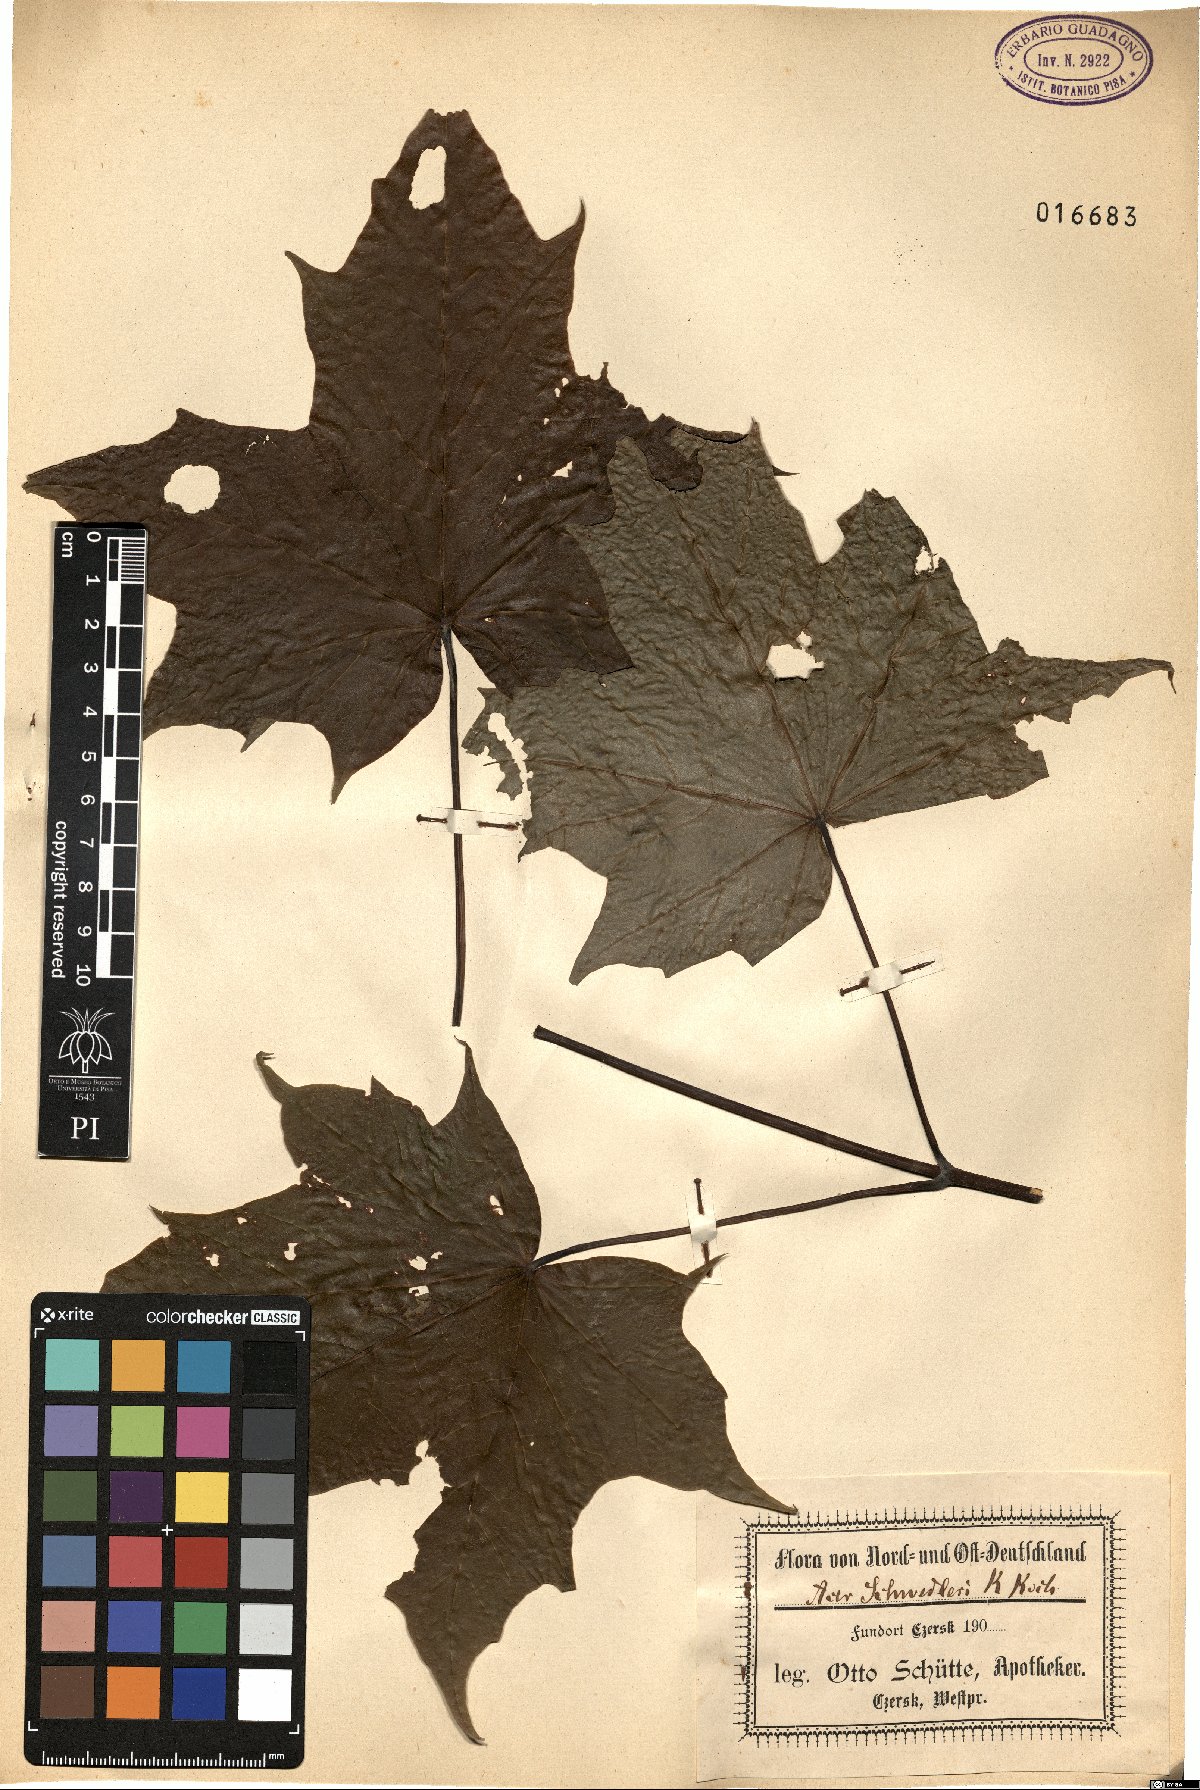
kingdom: Plantae
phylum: Tracheophyta
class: Magnoliopsida
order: Sapindales
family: Sapindaceae
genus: Acer
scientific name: Acer platanoides
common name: Norway maple
